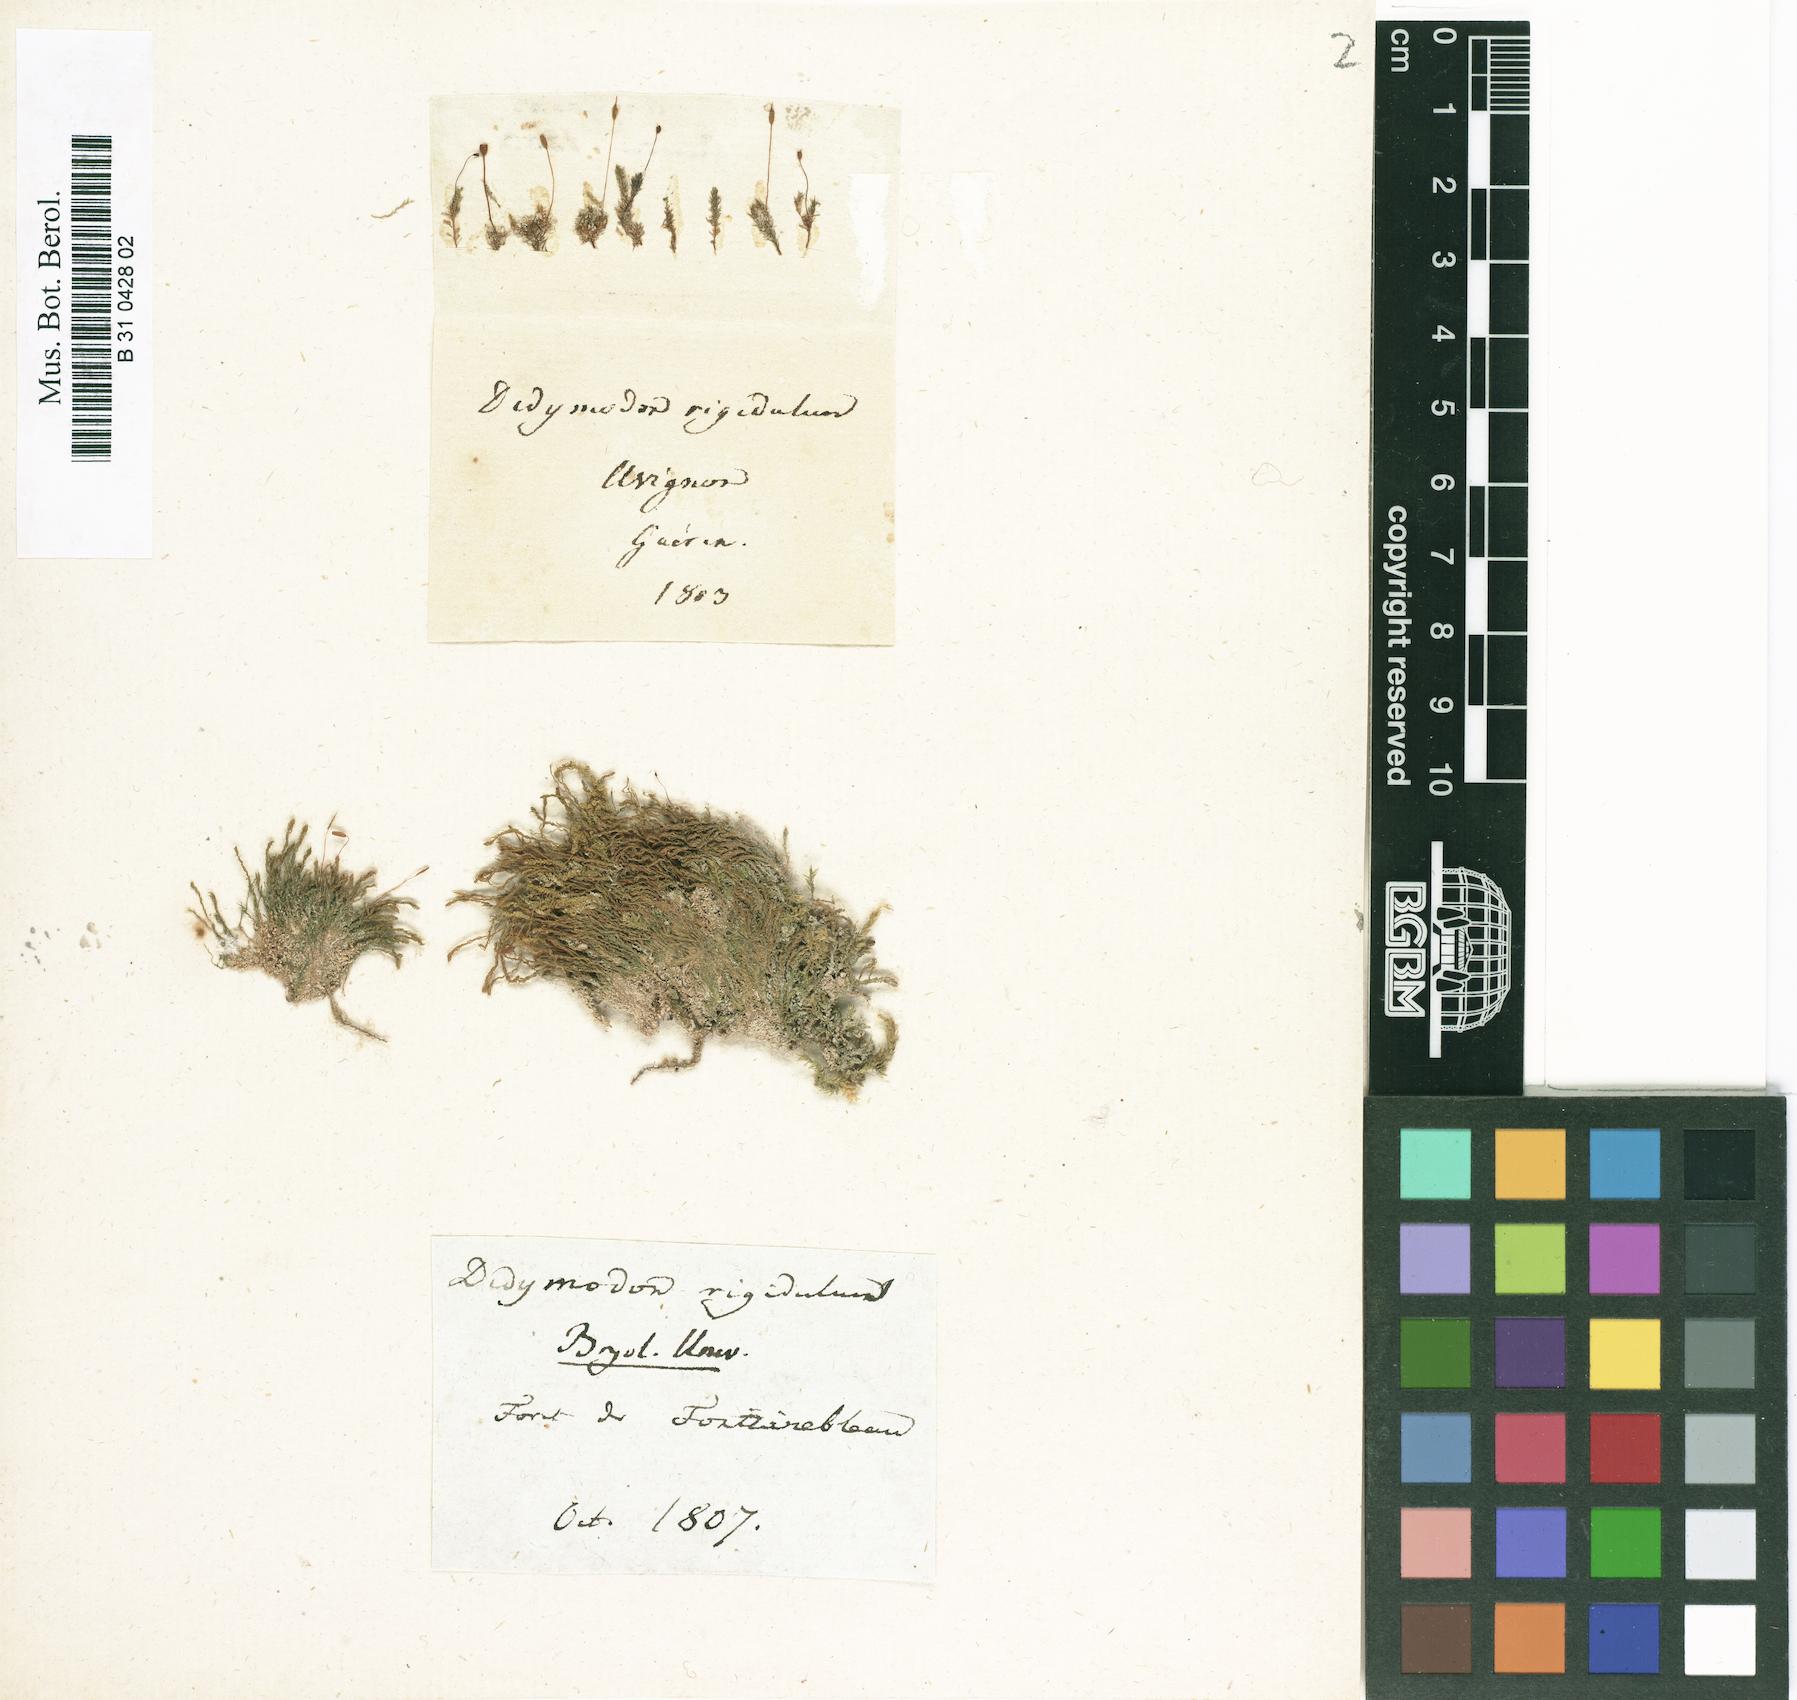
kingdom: Plantae
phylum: Bryophyta
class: Bryopsida
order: Pottiales
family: Pottiaceae
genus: Didymodon
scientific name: Didymodon rigidulus
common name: Rigid beard-moss
